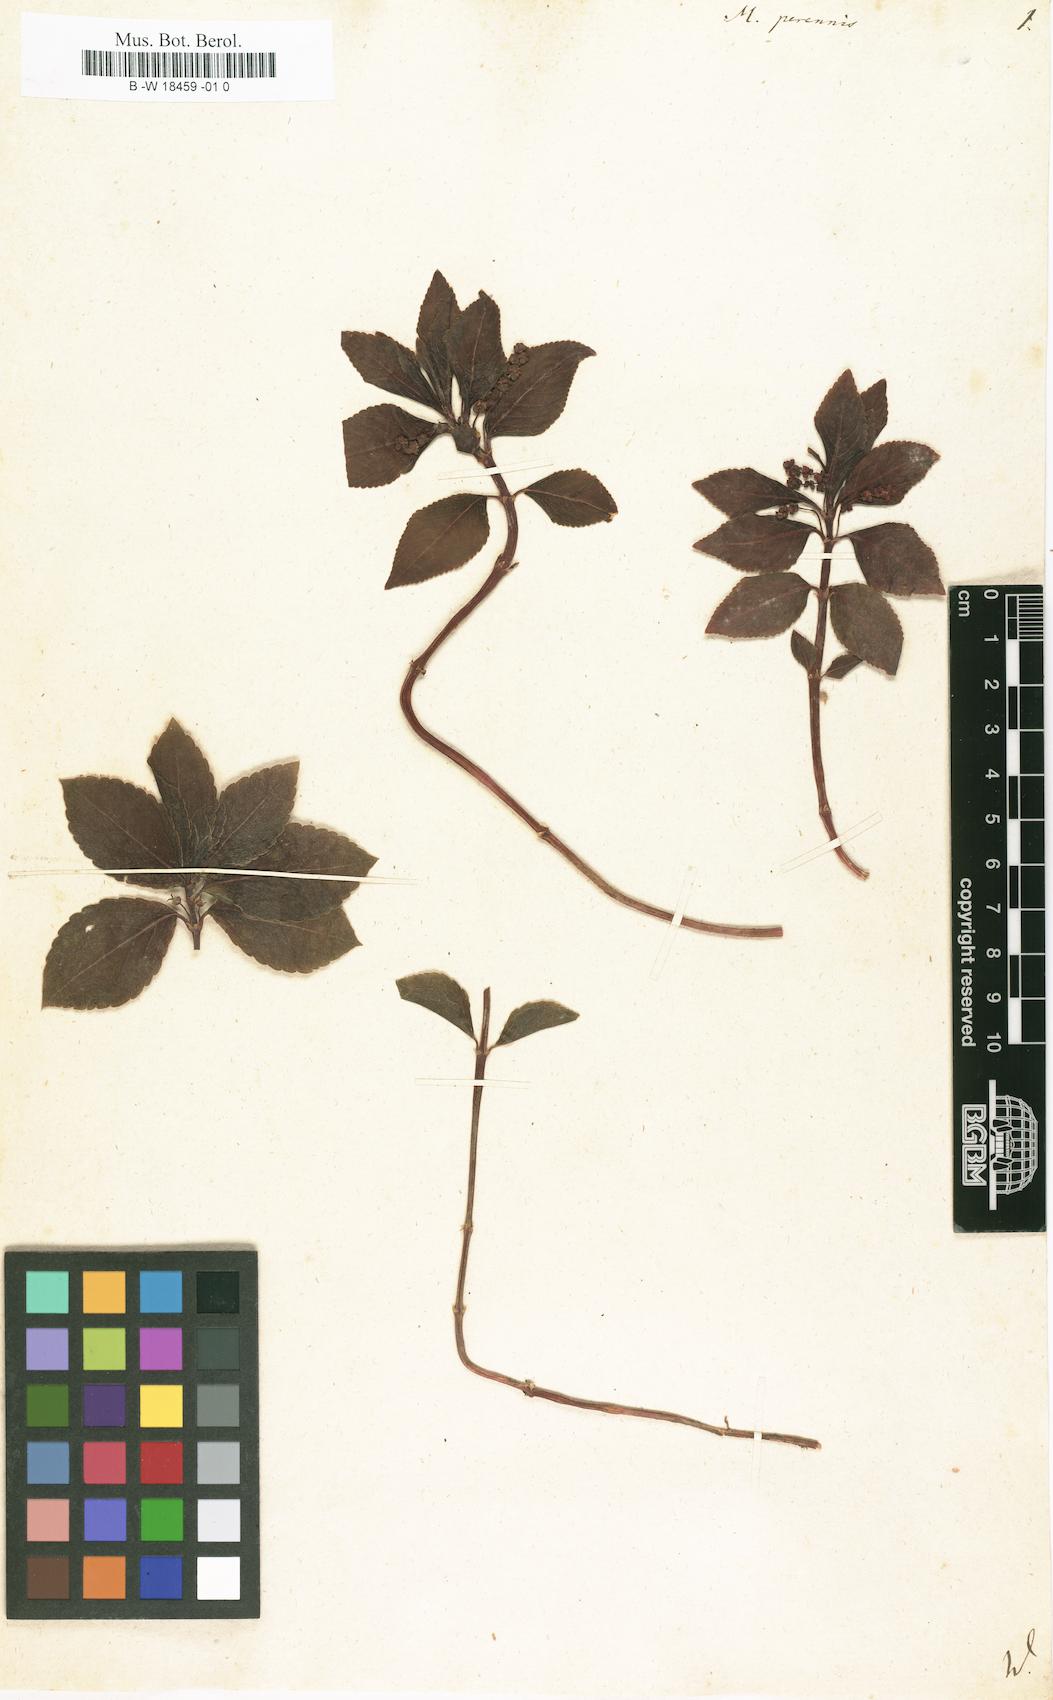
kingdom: Plantae
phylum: Tracheophyta
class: Magnoliopsida
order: Malpighiales
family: Euphorbiaceae
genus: Mercurialis
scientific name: Mercurialis perennis
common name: Dog mercury
